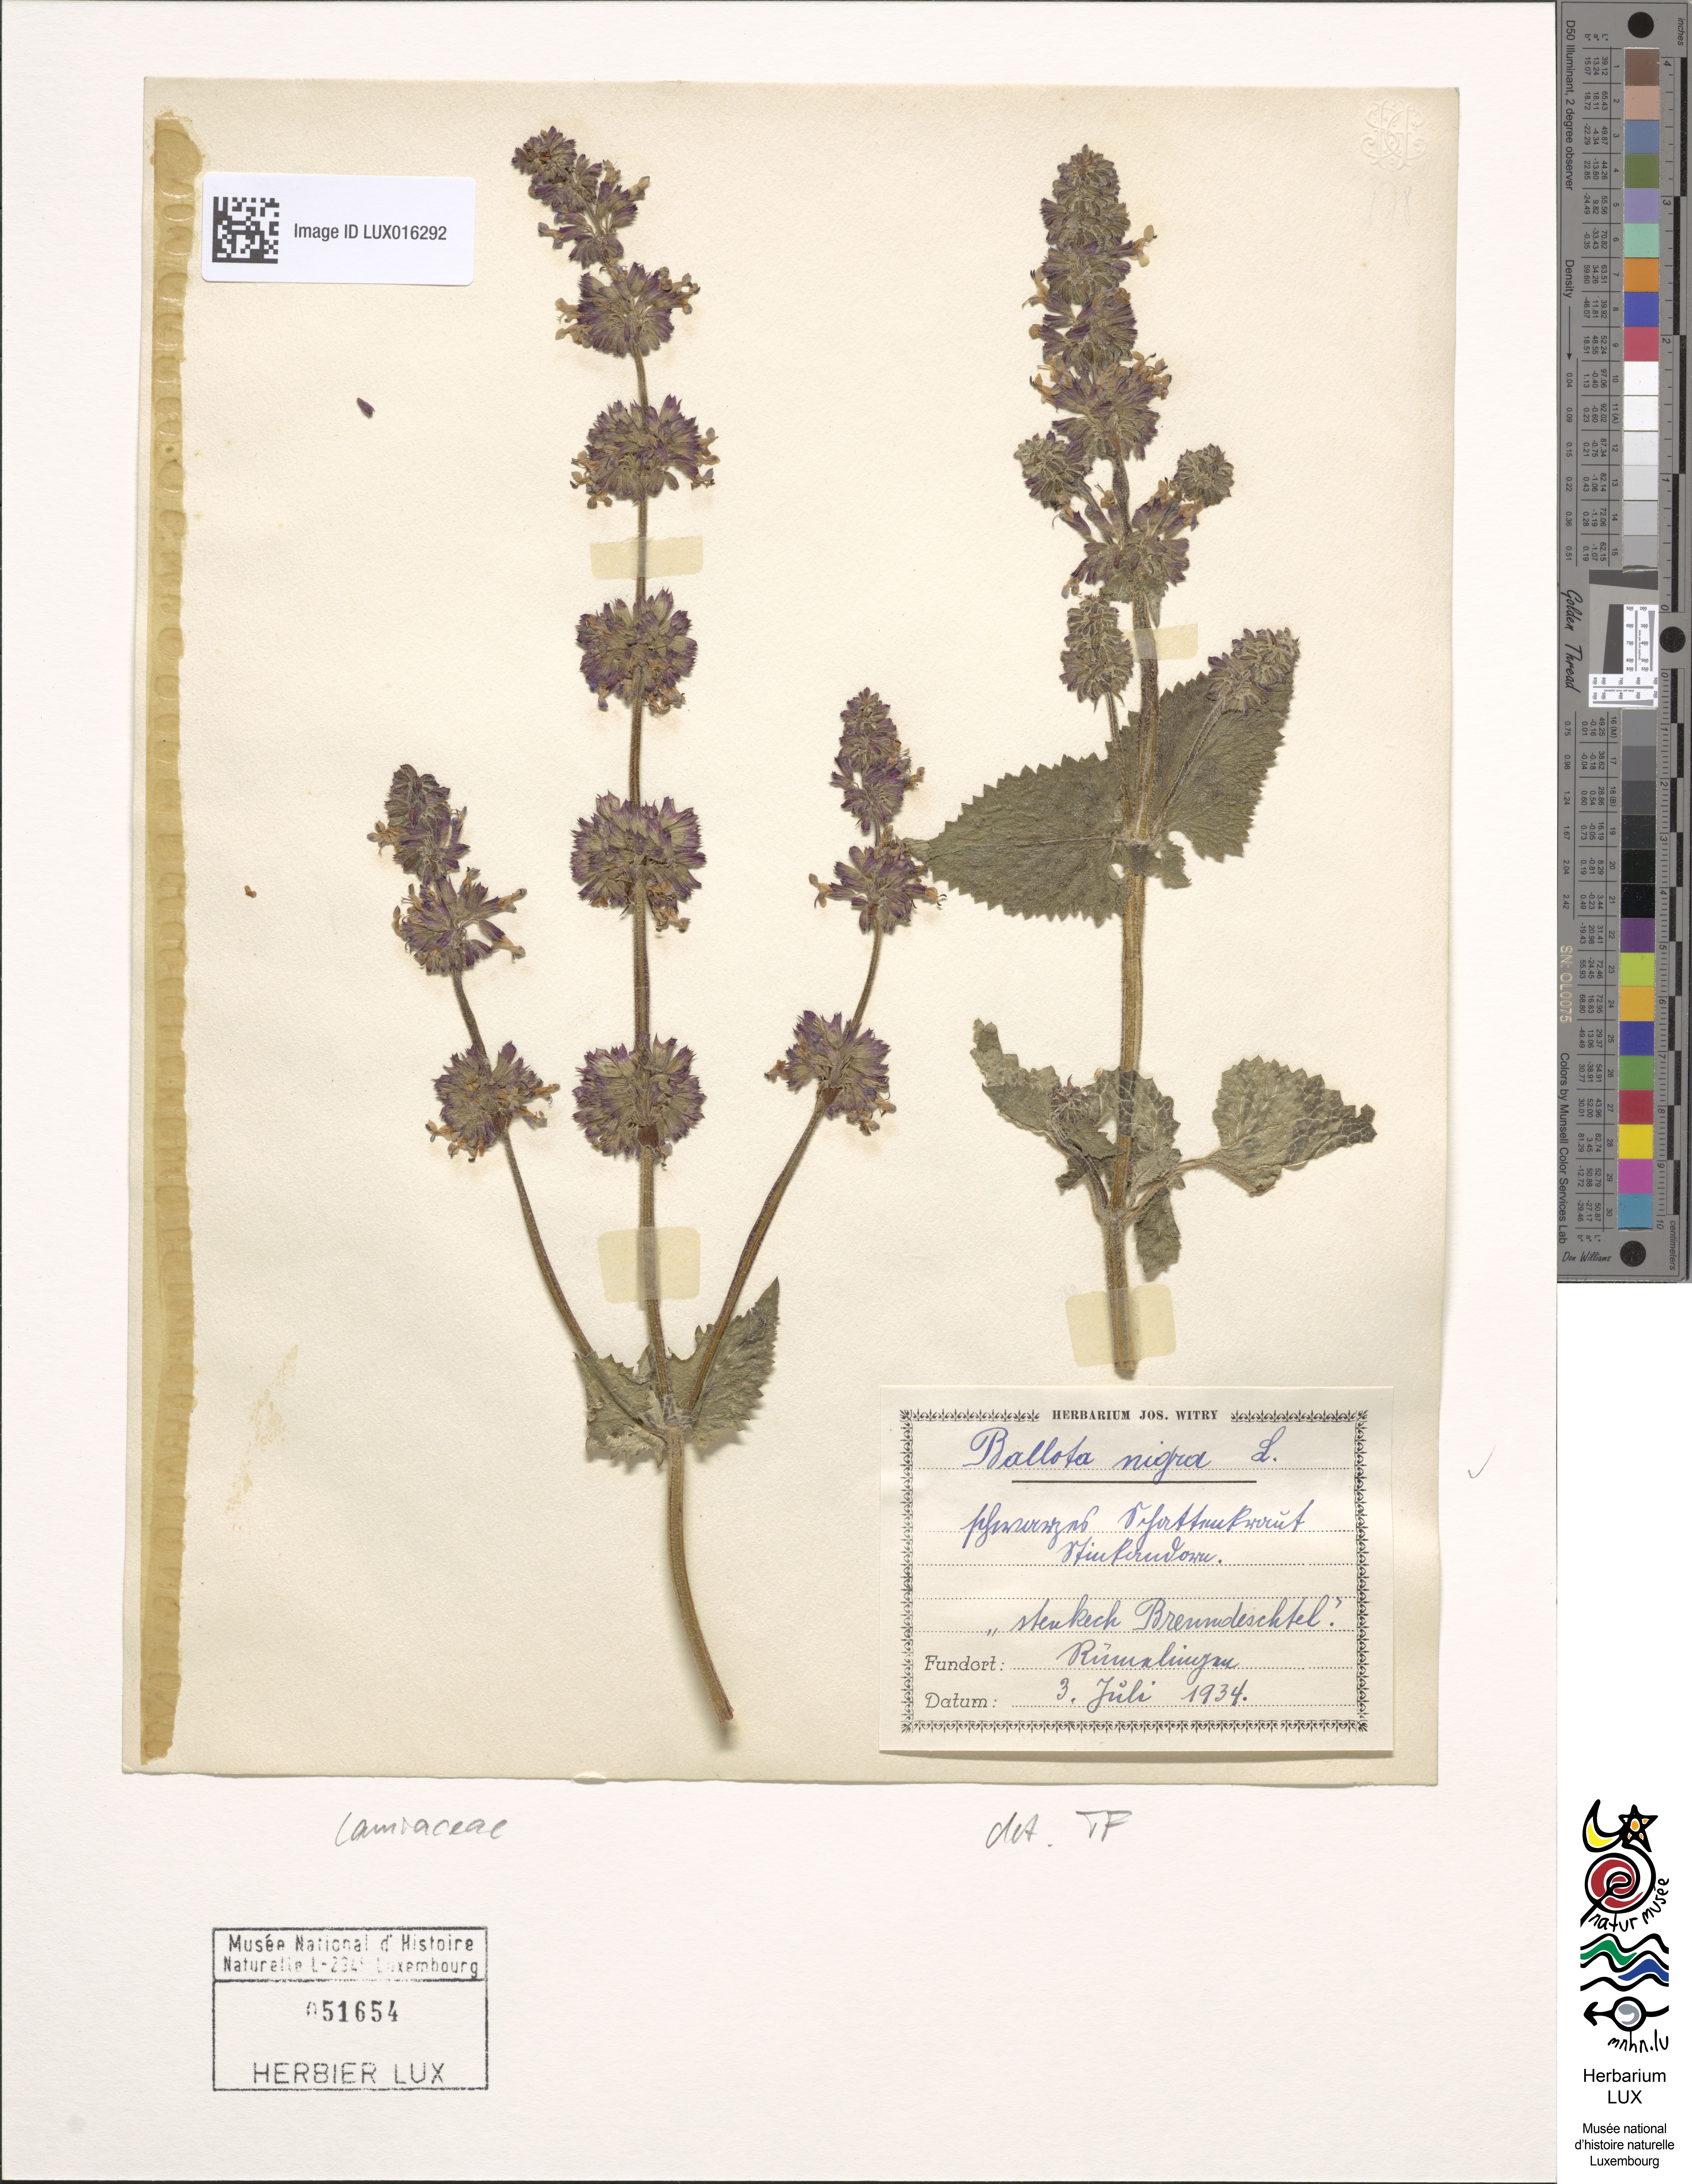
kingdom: Plantae
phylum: Tracheophyta
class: Magnoliopsida
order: Lamiales
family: Lamiaceae
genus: Ballota
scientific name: Ballota nigra
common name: Black horehound
